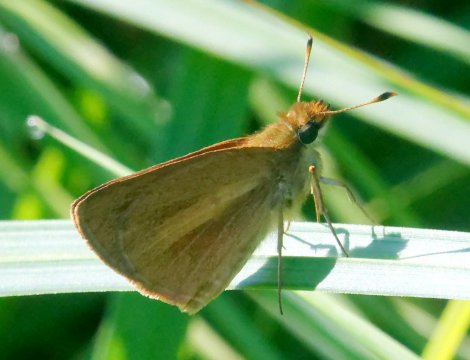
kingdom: Animalia
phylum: Arthropoda
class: Insecta
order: Lepidoptera
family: Hesperiidae
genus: Euphyes
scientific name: Euphyes dion
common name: Dion Skipper
